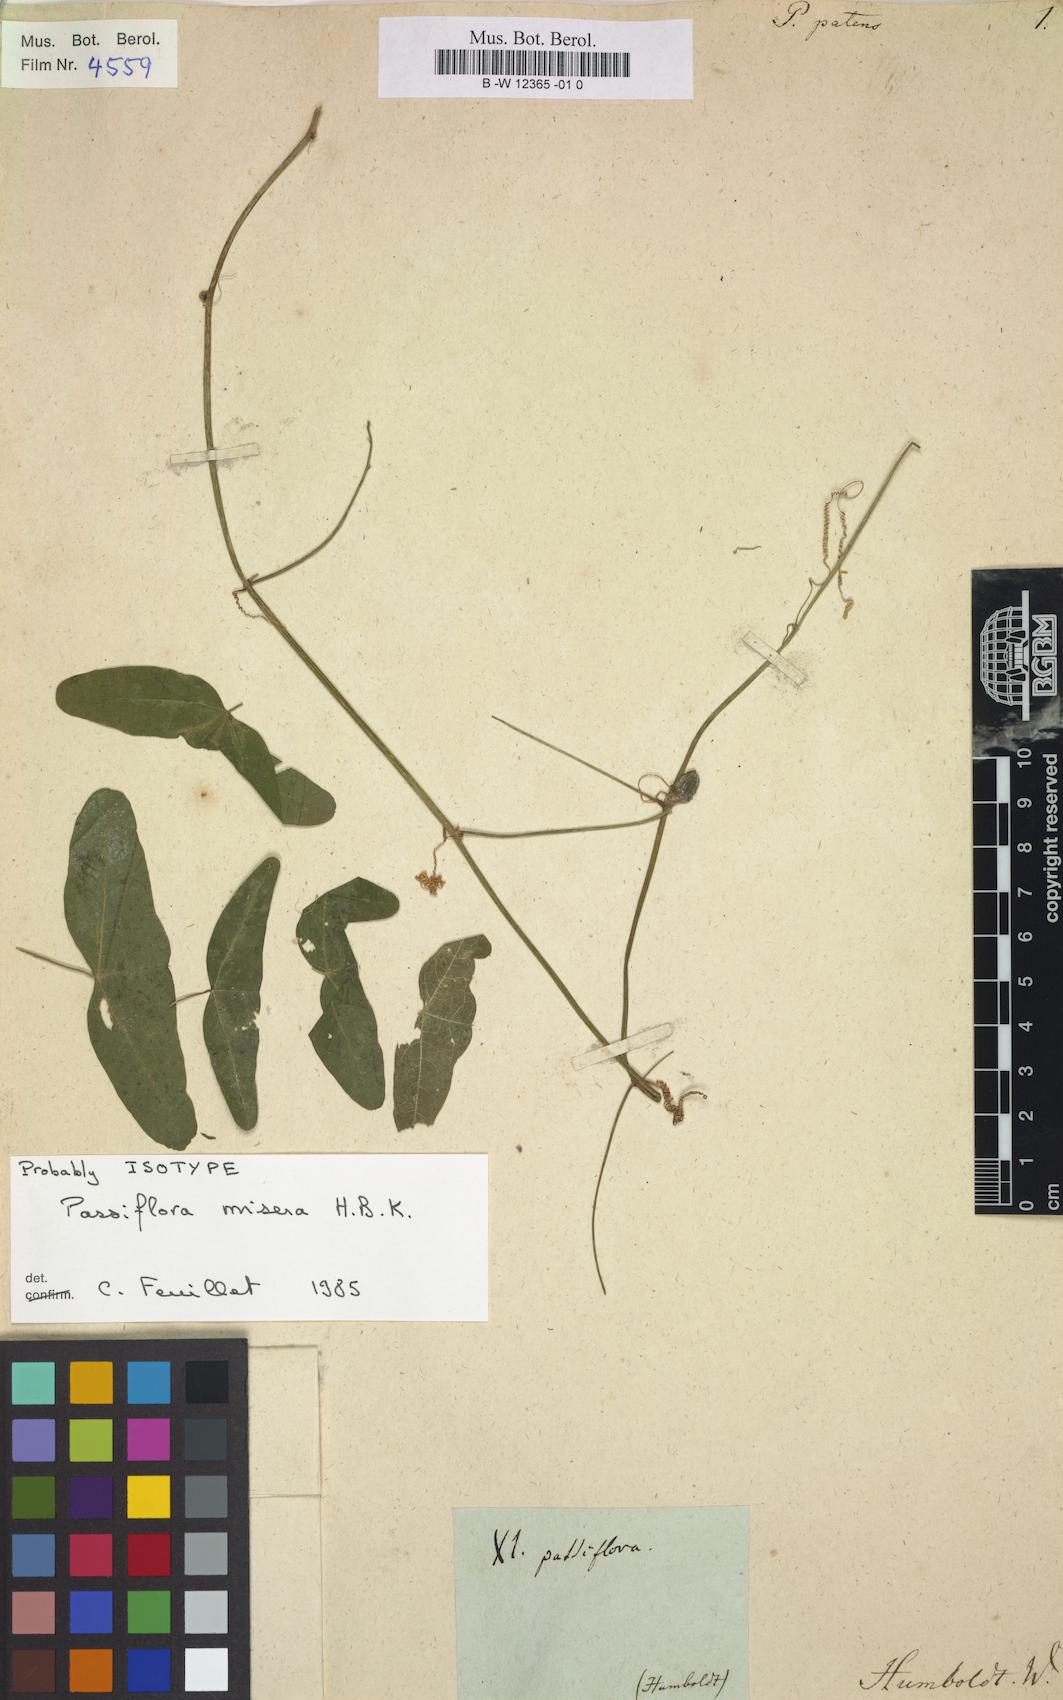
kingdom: Plantae
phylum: Tracheophyta
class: Magnoliopsida
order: Malpighiales
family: Passifloraceae
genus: Passiflora
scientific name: Passiflora misera
